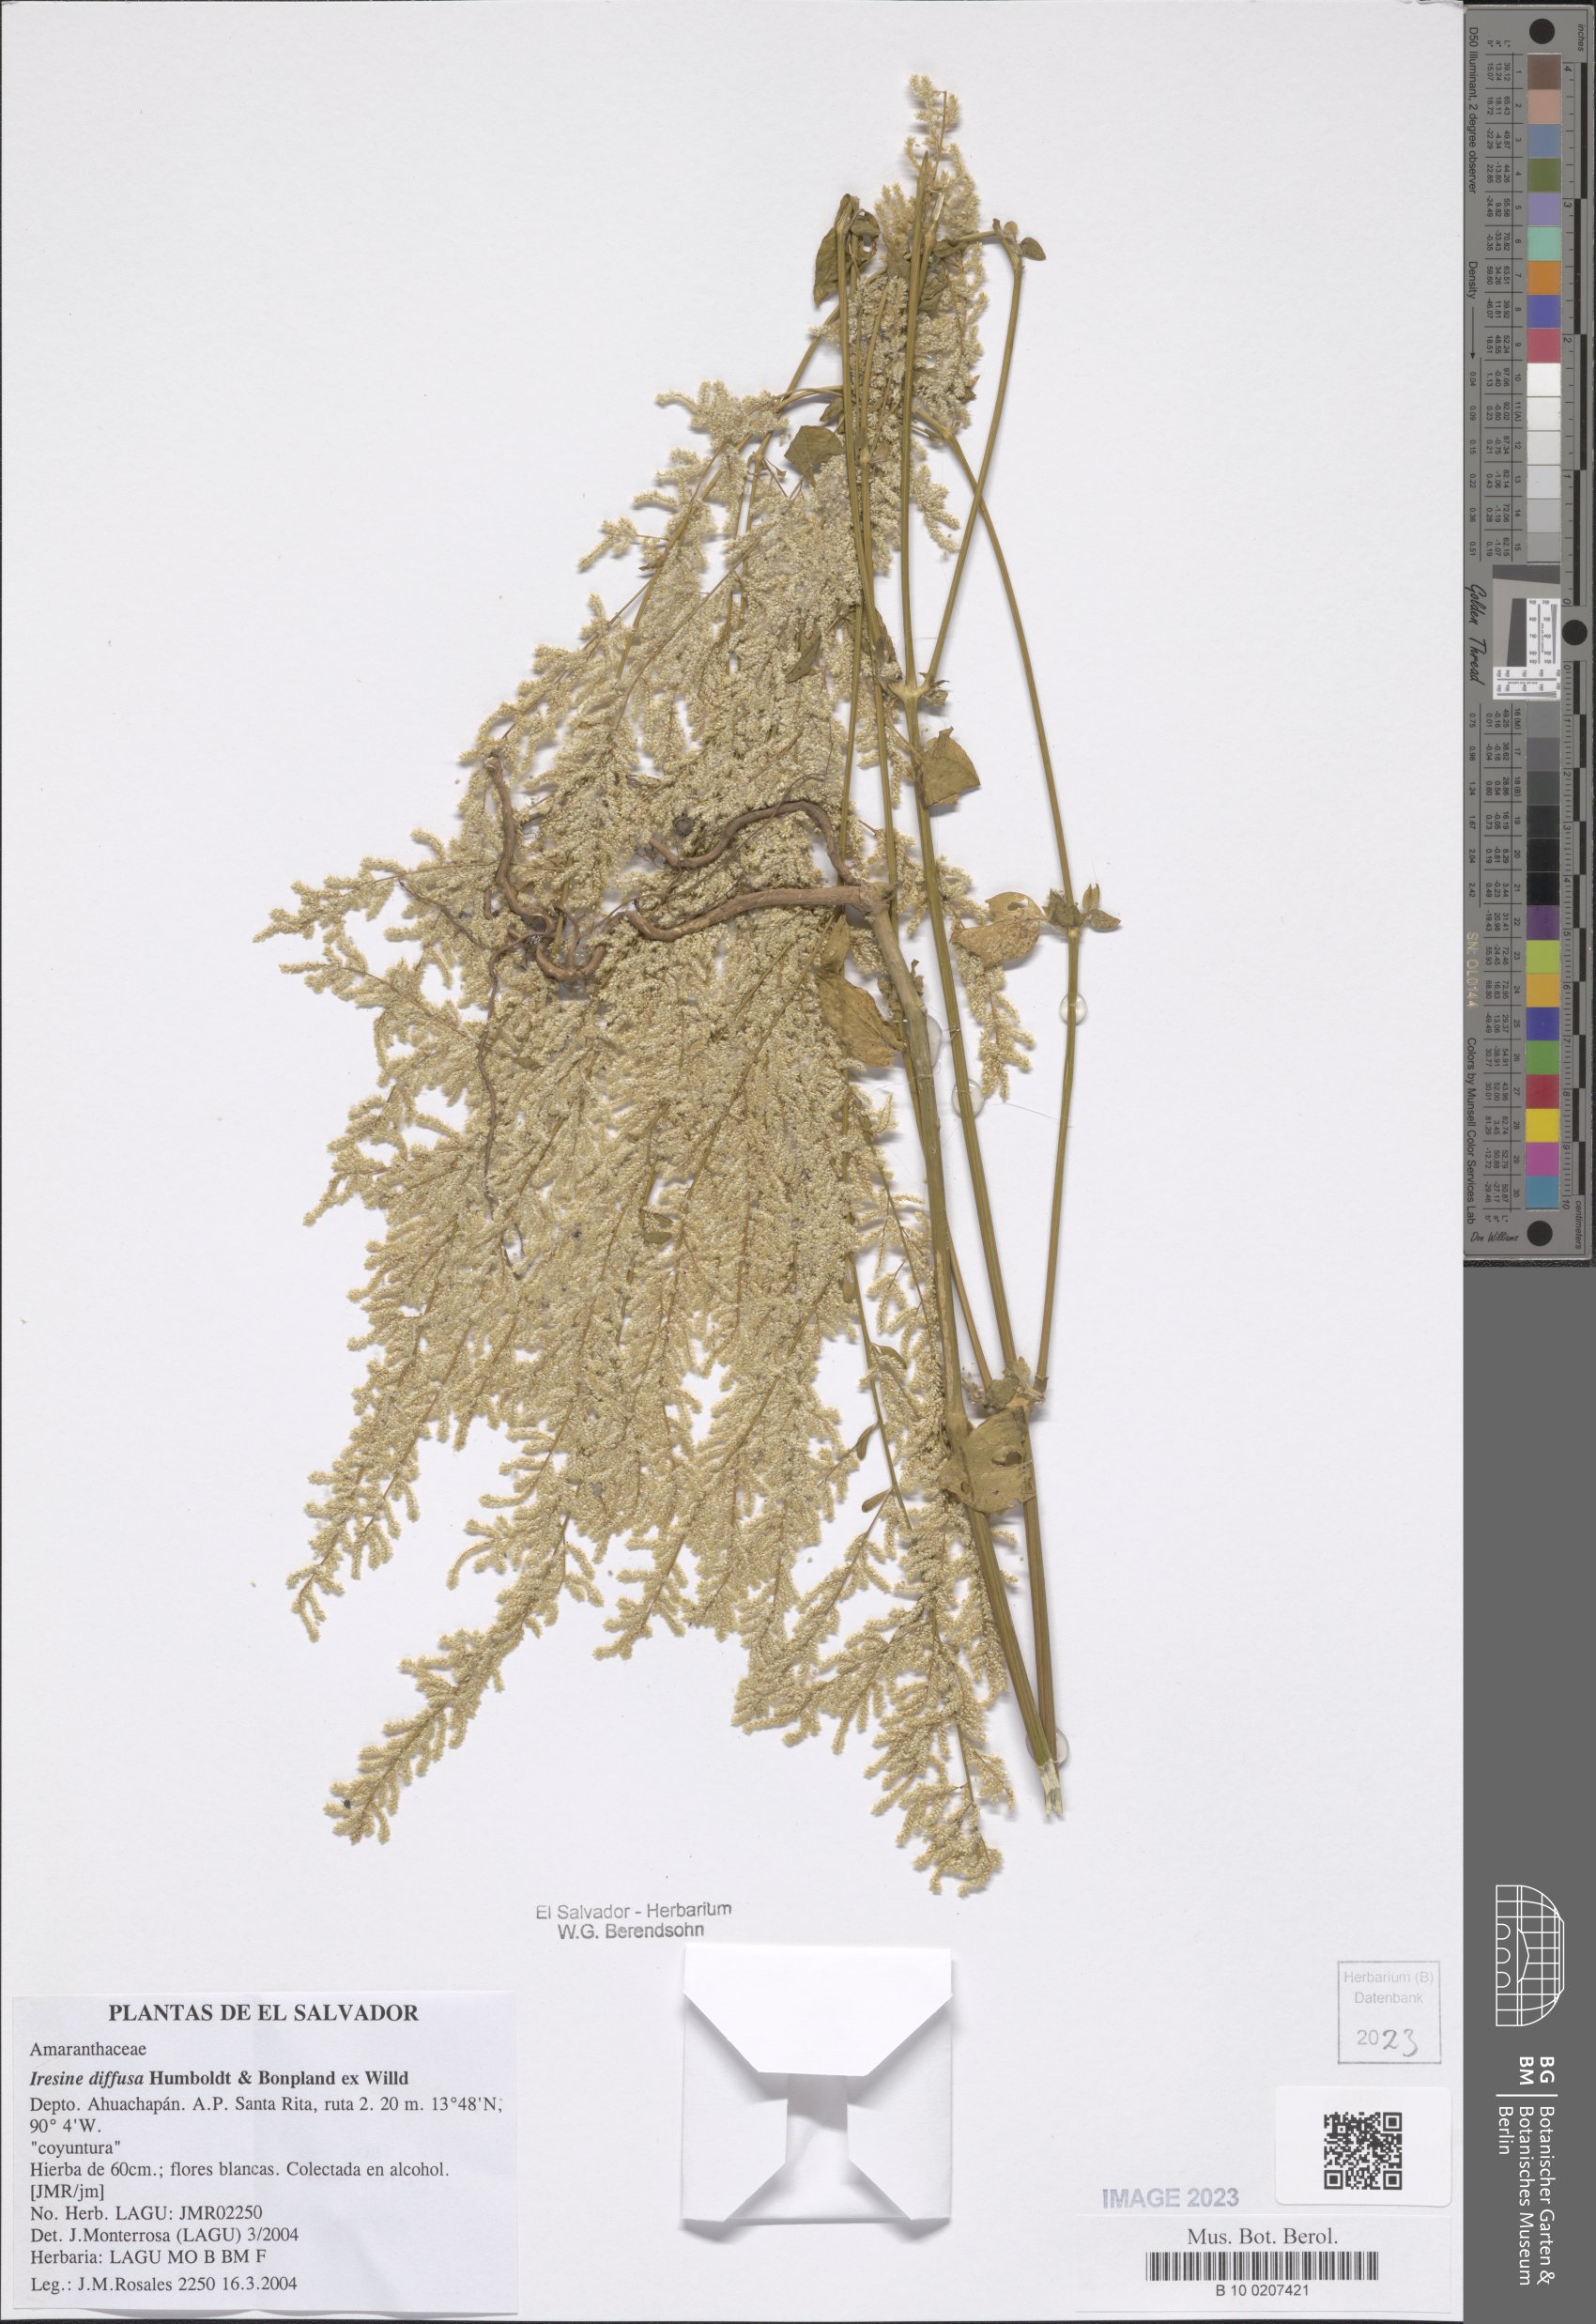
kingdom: Plantae
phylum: Tracheophyta
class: Magnoliopsida
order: Caryophyllales
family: Amaranthaceae
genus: Iresine
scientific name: Iresine diffusa
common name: Juba's-bush
